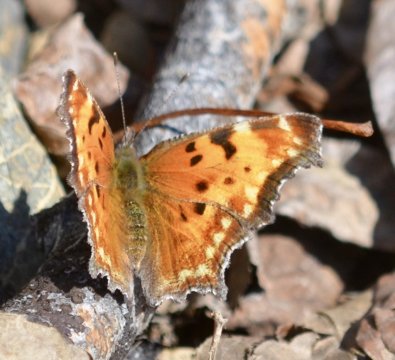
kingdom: Animalia
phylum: Arthropoda
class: Insecta
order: Lepidoptera
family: Nymphalidae
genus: Polygonia
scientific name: Polygonia gracilis
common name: Hoary Comma
